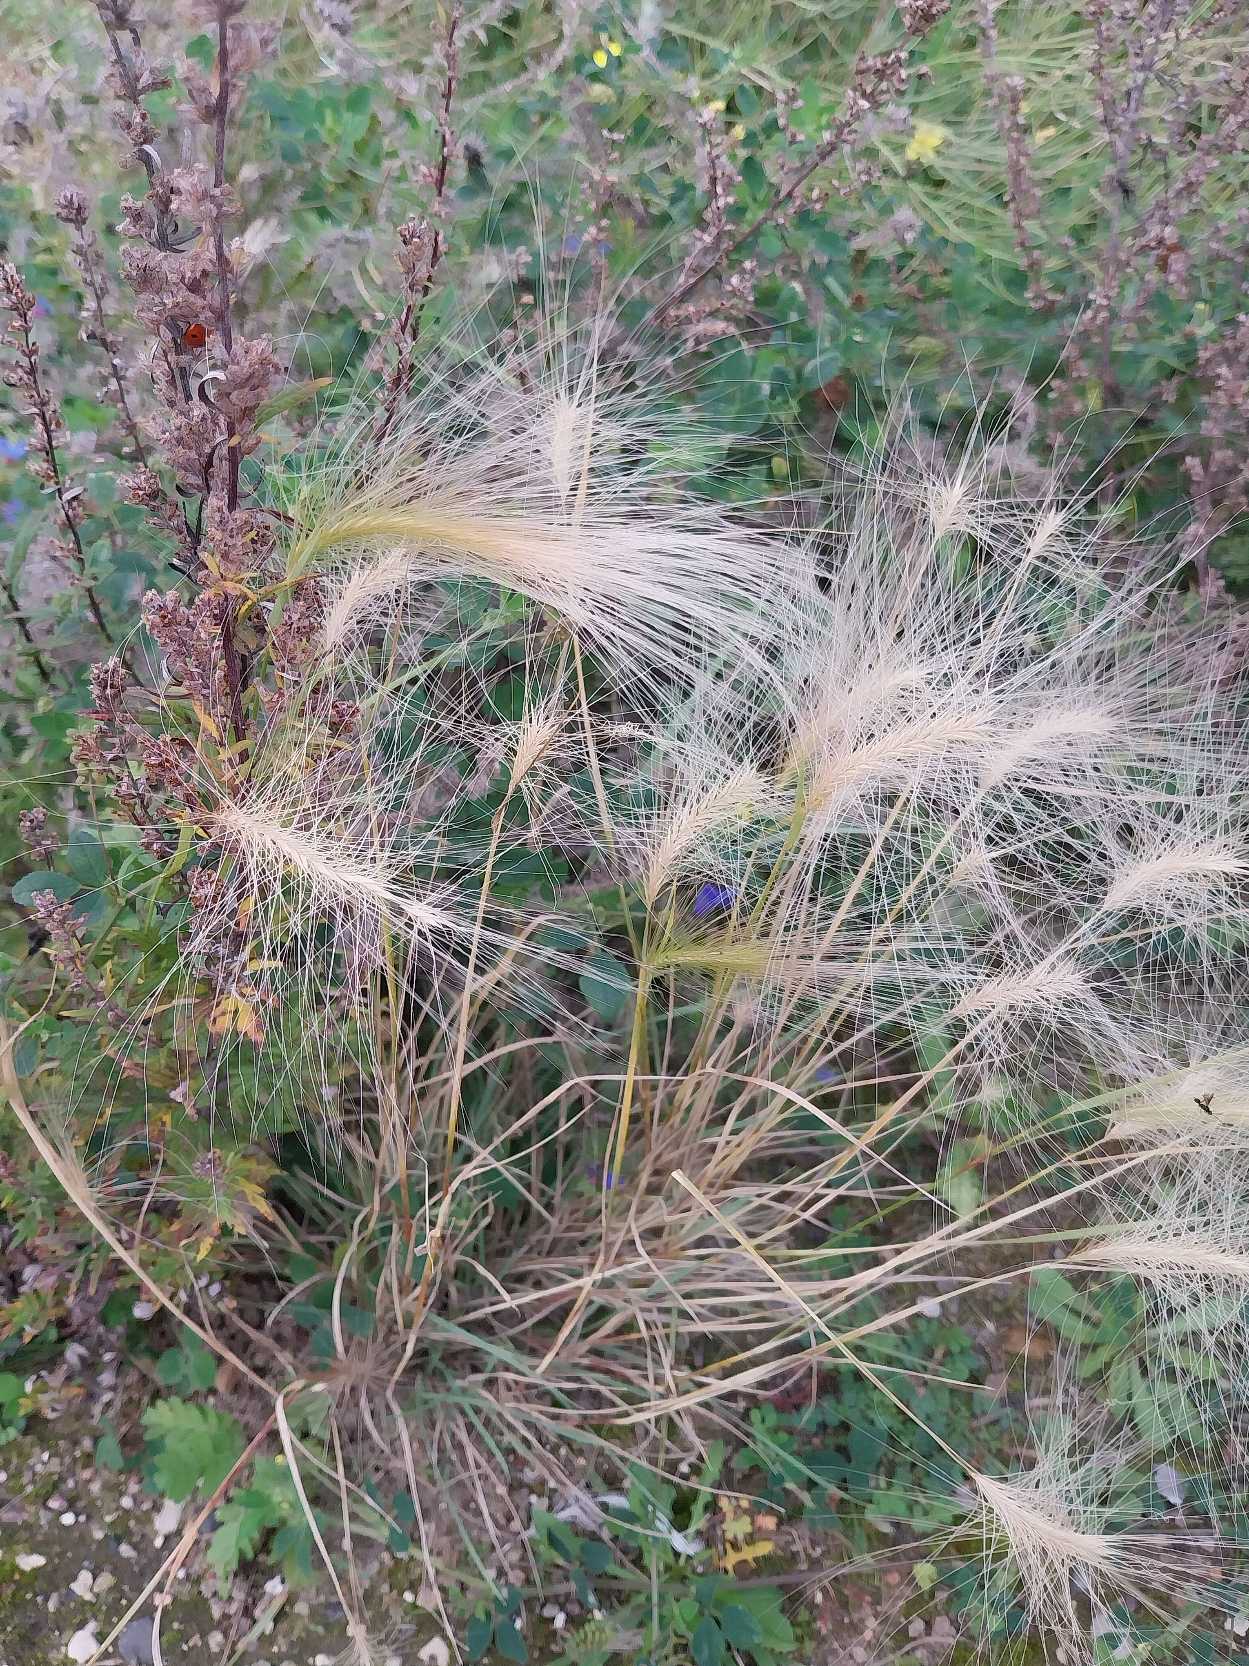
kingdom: Plantae
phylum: Tracheophyta
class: Liliopsida
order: Poales
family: Poaceae
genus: Hordeum
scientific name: Hordeum jubatum
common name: Egernhale-byg
